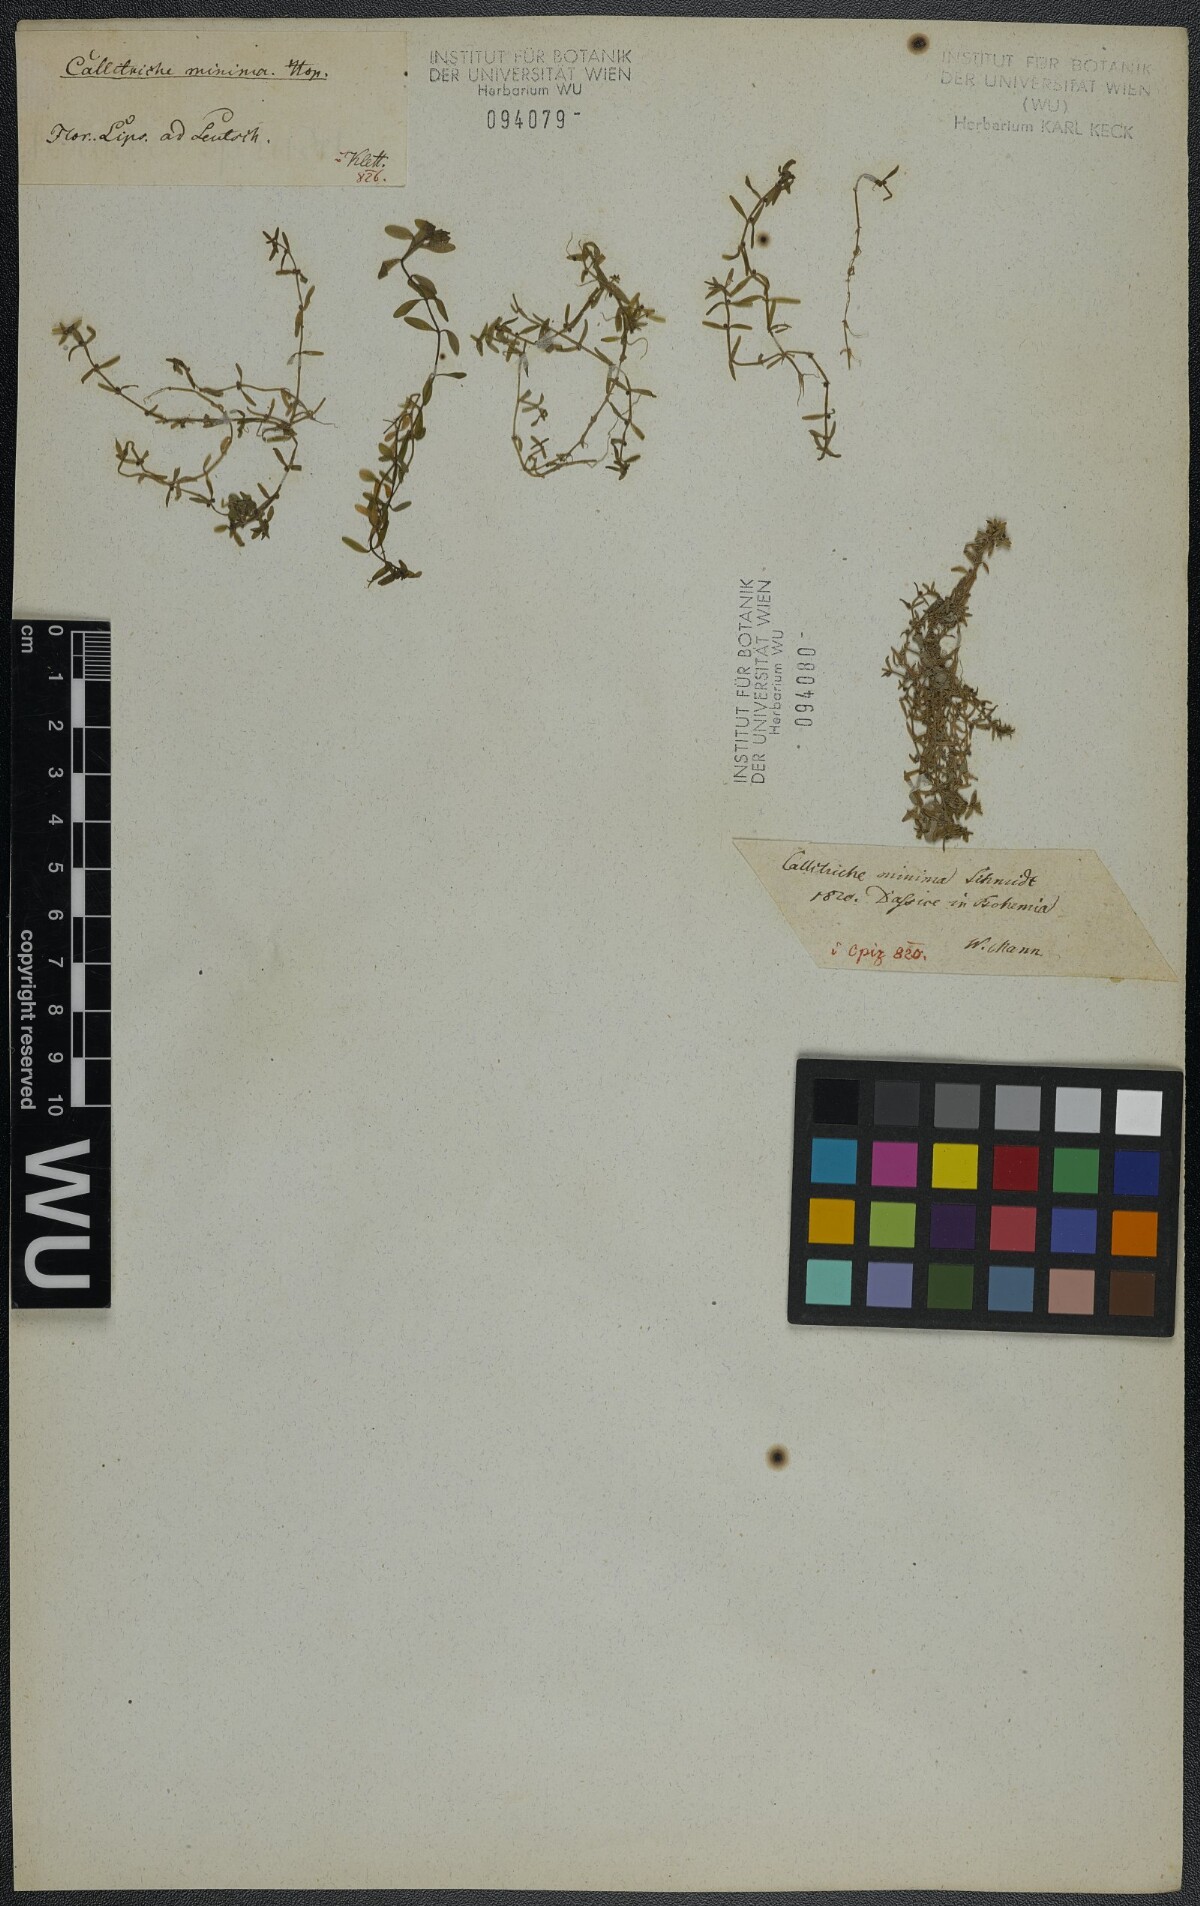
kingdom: Plantae
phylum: Tracheophyta
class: Magnoliopsida
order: Lamiales
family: Plantaginaceae
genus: Callitriche
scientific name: Callitriche palustris
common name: Spring water-starwort
